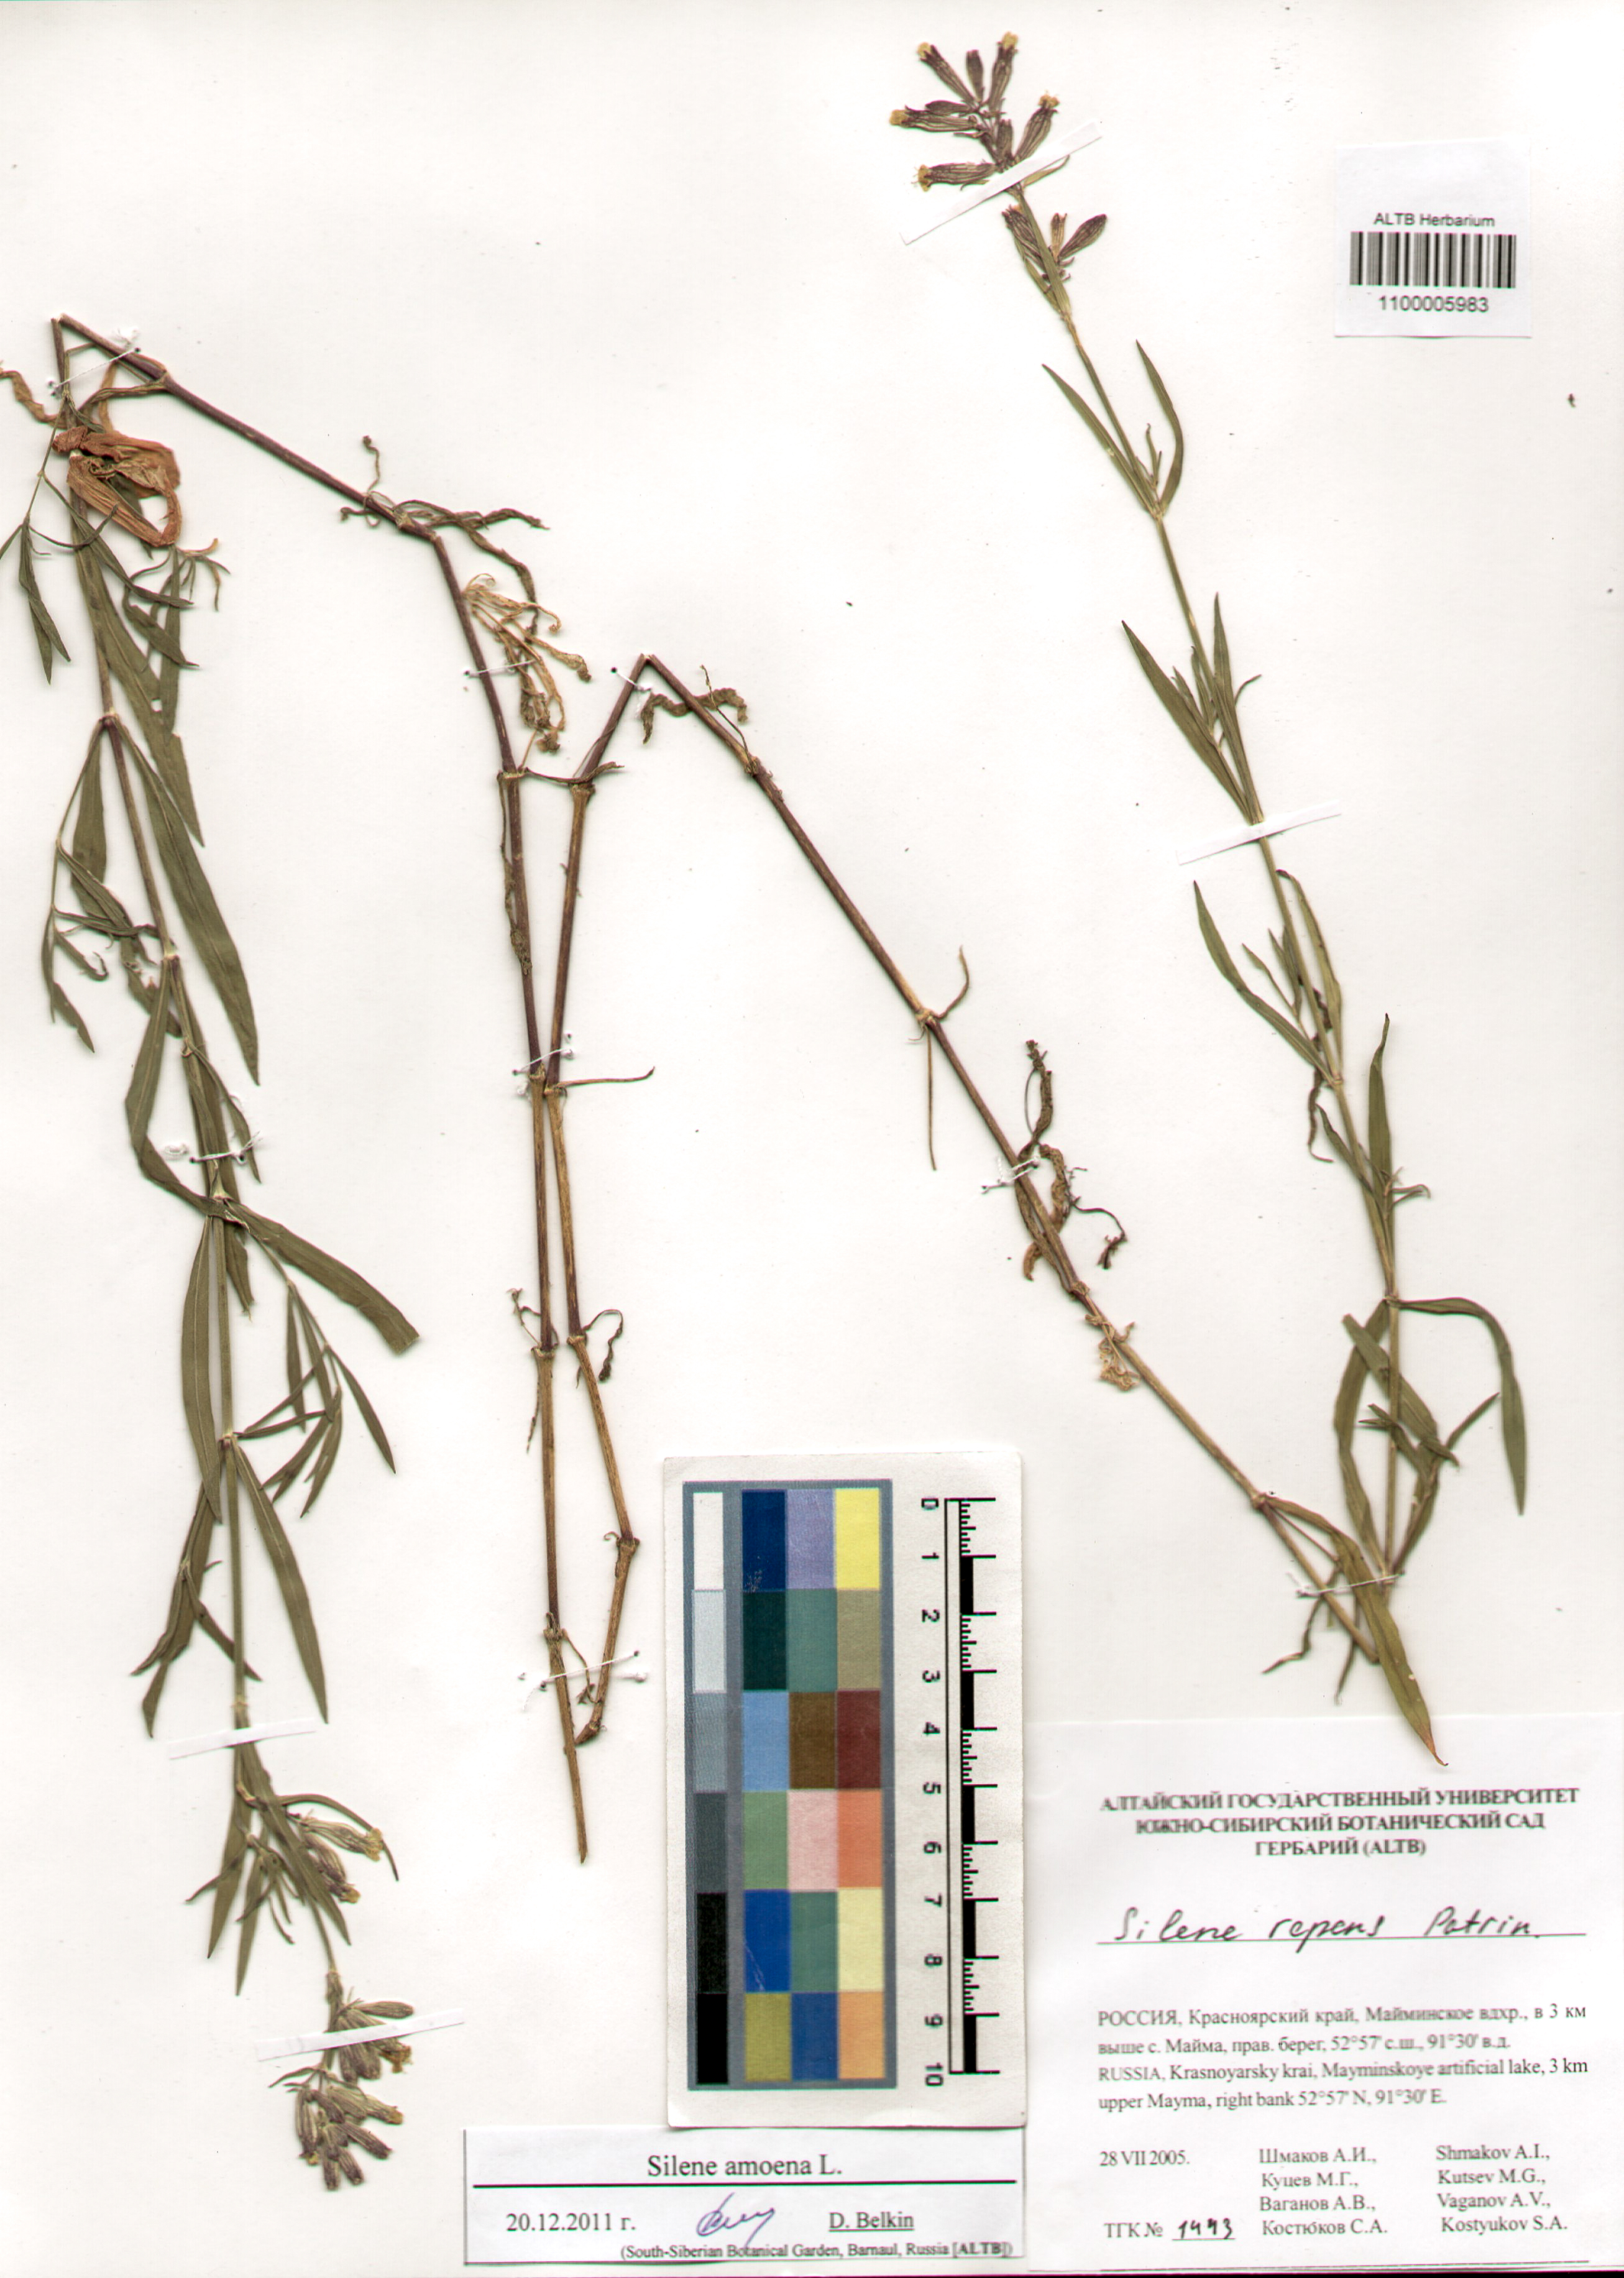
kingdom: Plantae
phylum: Tracheophyta
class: Magnoliopsida
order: Caryophyllales
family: Caryophyllaceae
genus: Silene
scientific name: Silene amoena
